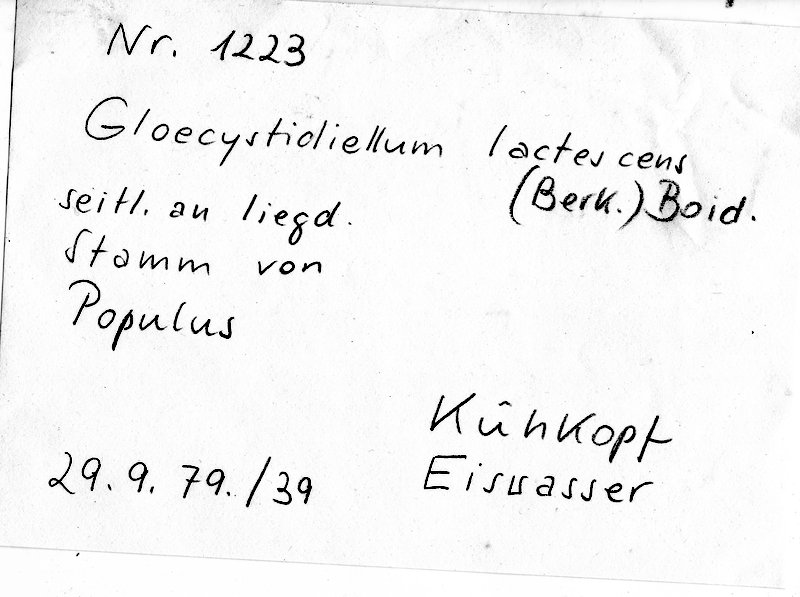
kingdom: Plantae
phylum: Tracheophyta
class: Magnoliopsida
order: Malpighiales
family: Salicaceae
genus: Populus
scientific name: Populus
